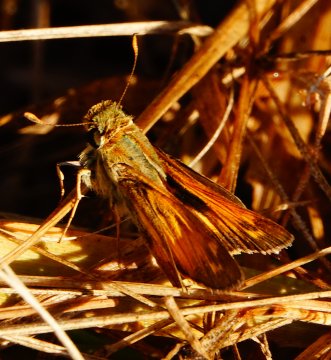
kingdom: Animalia
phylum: Arthropoda
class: Insecta
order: Lepidoptera
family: Hesperiidae
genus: Atalopedes
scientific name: Atalopedes campestris
